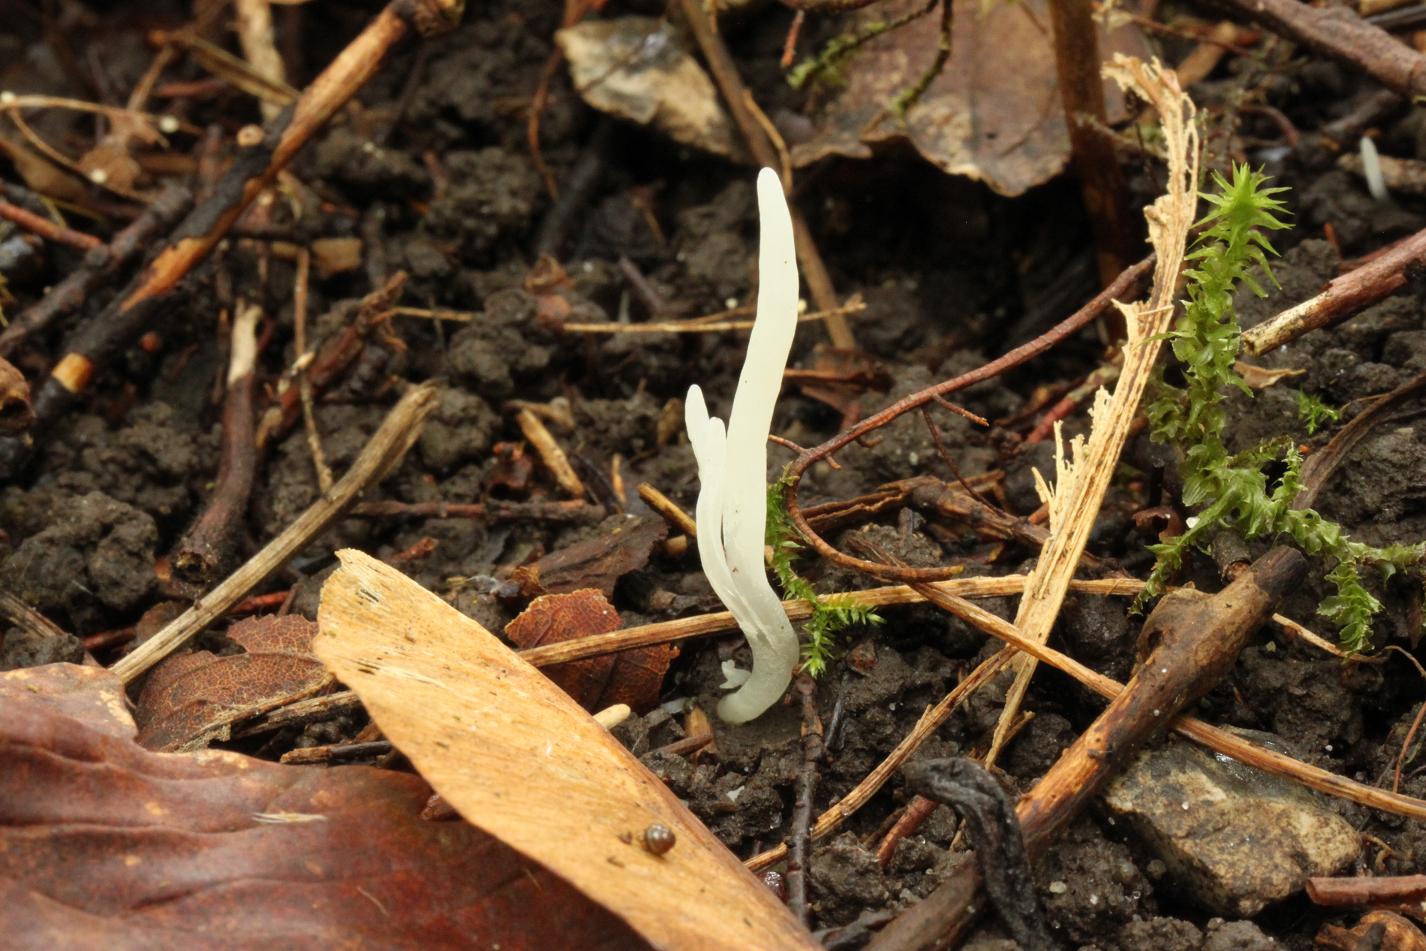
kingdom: Fungi
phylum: Basidiomycota
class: Agaricomycetes
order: Agaricales
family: Clavariaceae
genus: Clavaria
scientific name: Clavaria falcata
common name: hvid køllesvamp
